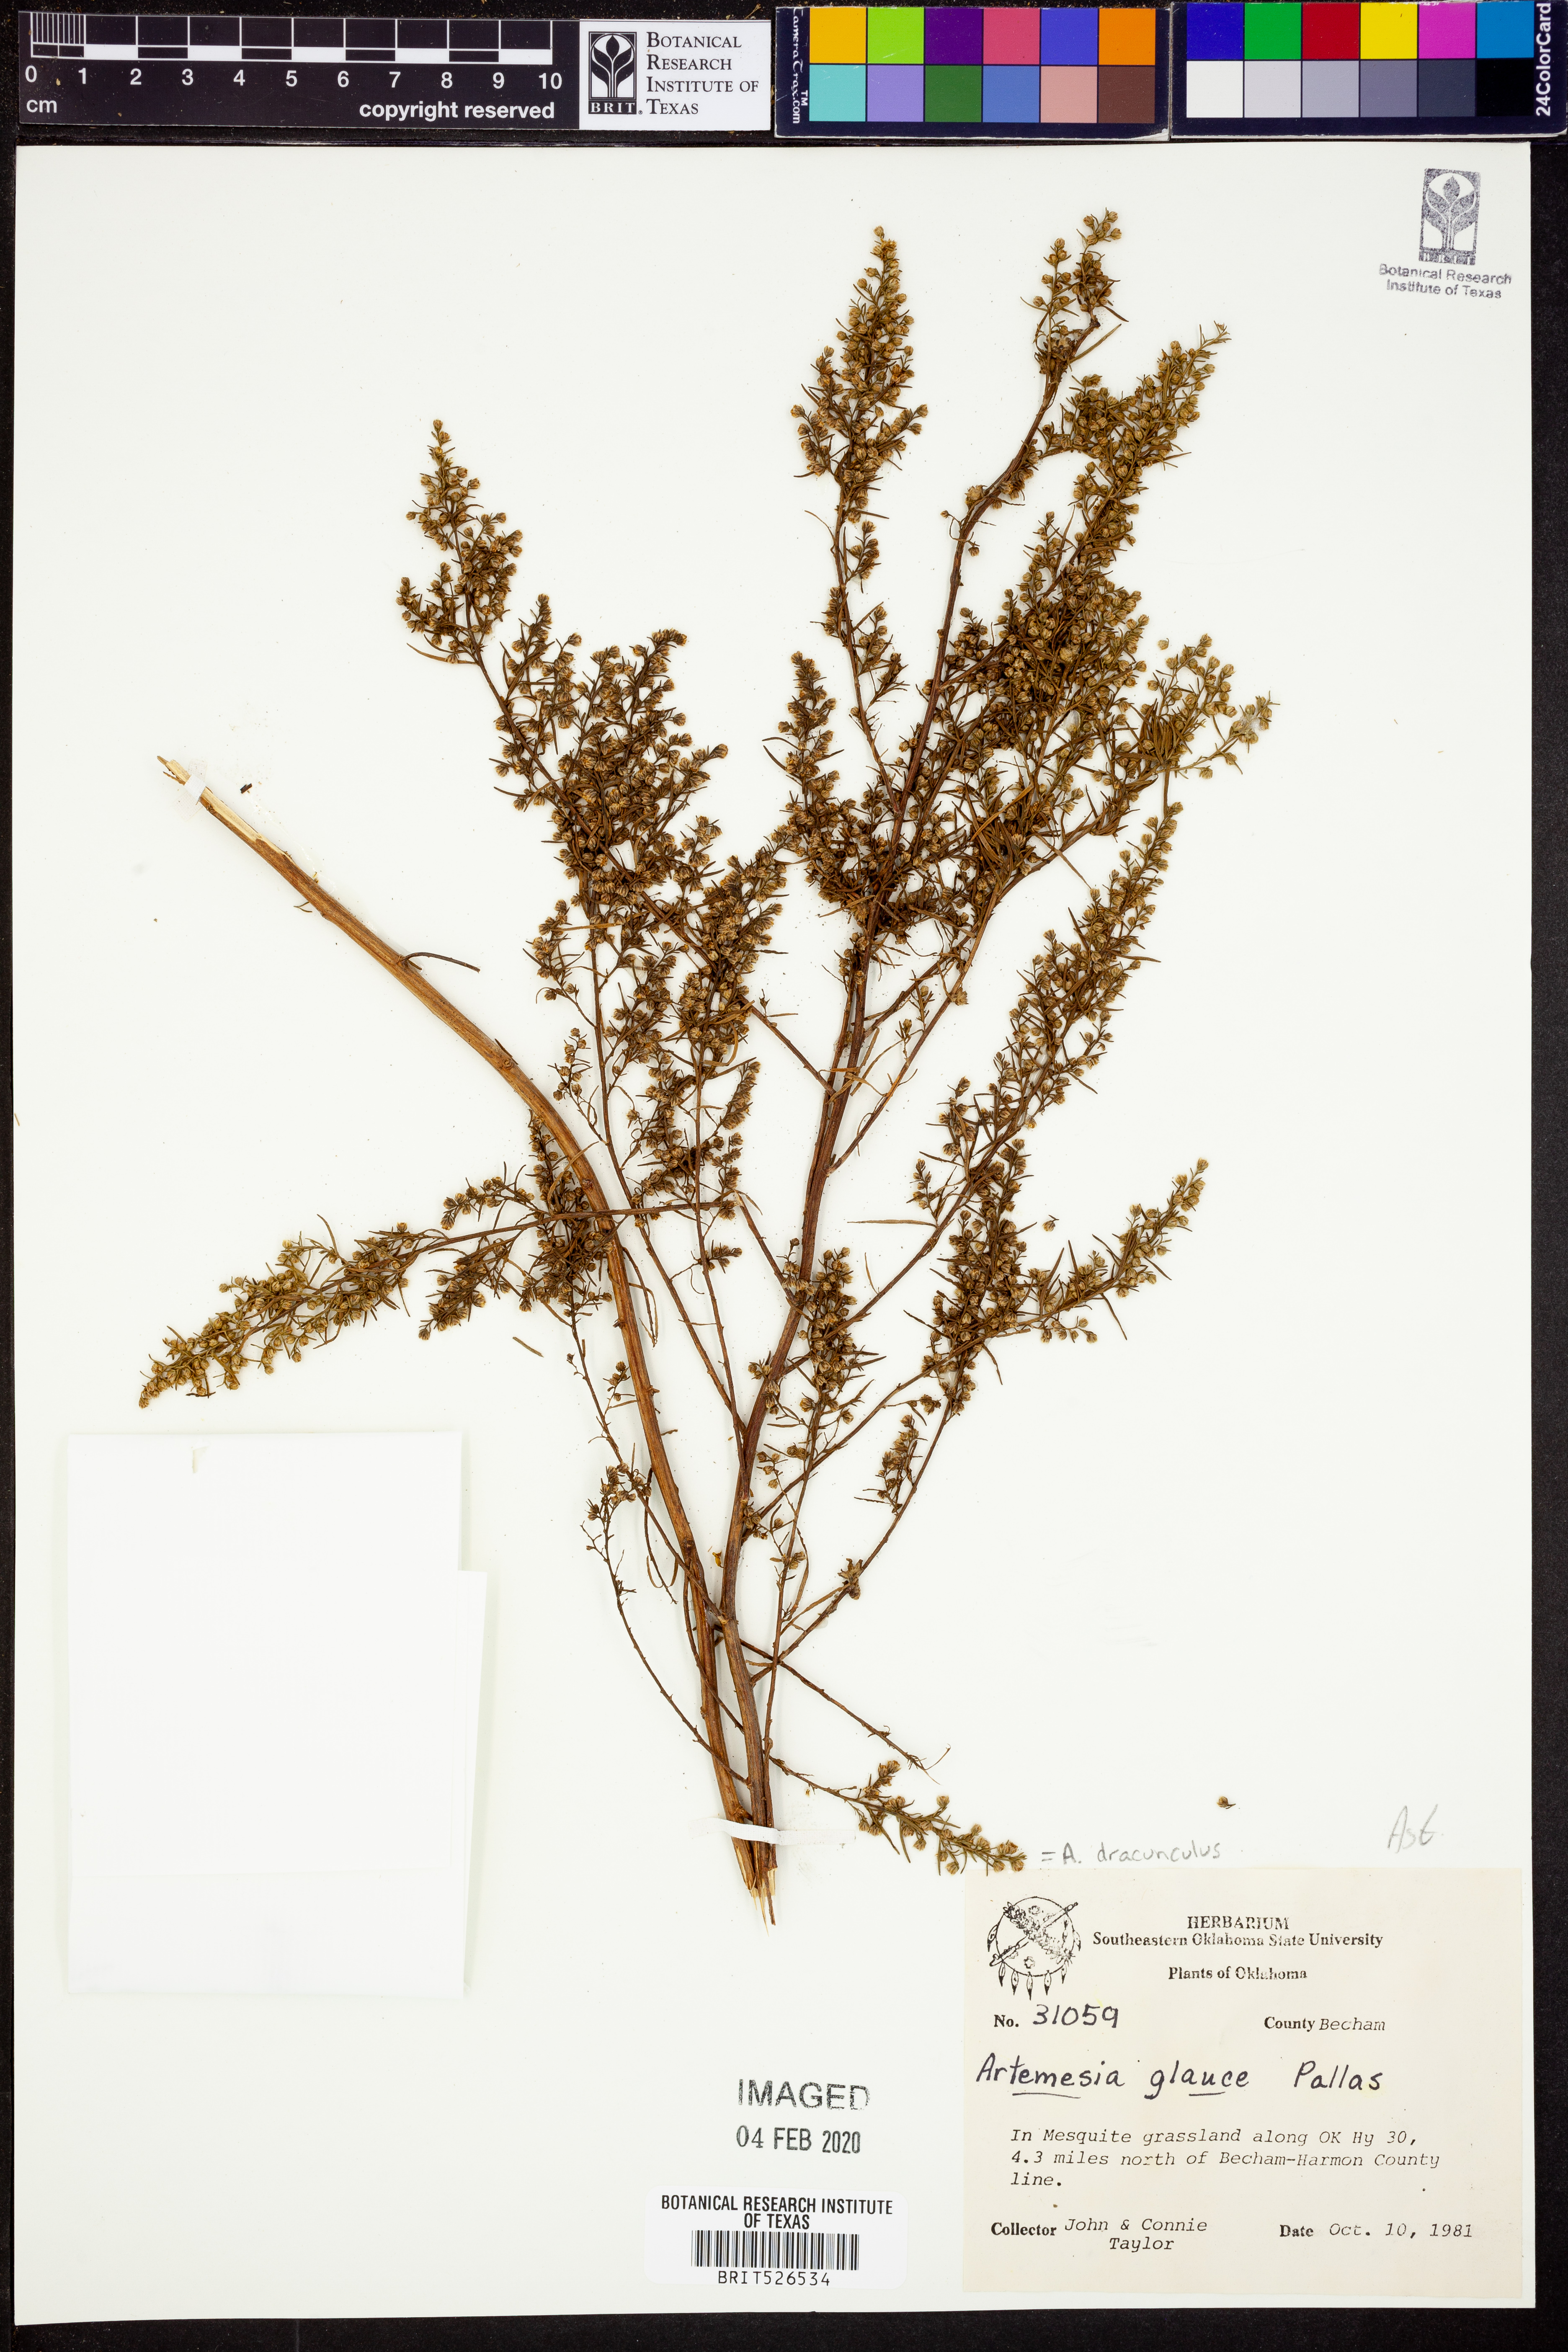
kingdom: Plantae
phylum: Tracheophyta
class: Magnoliopsida
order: Asterales
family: Asteraceae
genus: Artemisia
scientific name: Artemisia dracunculus
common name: Tarragon
